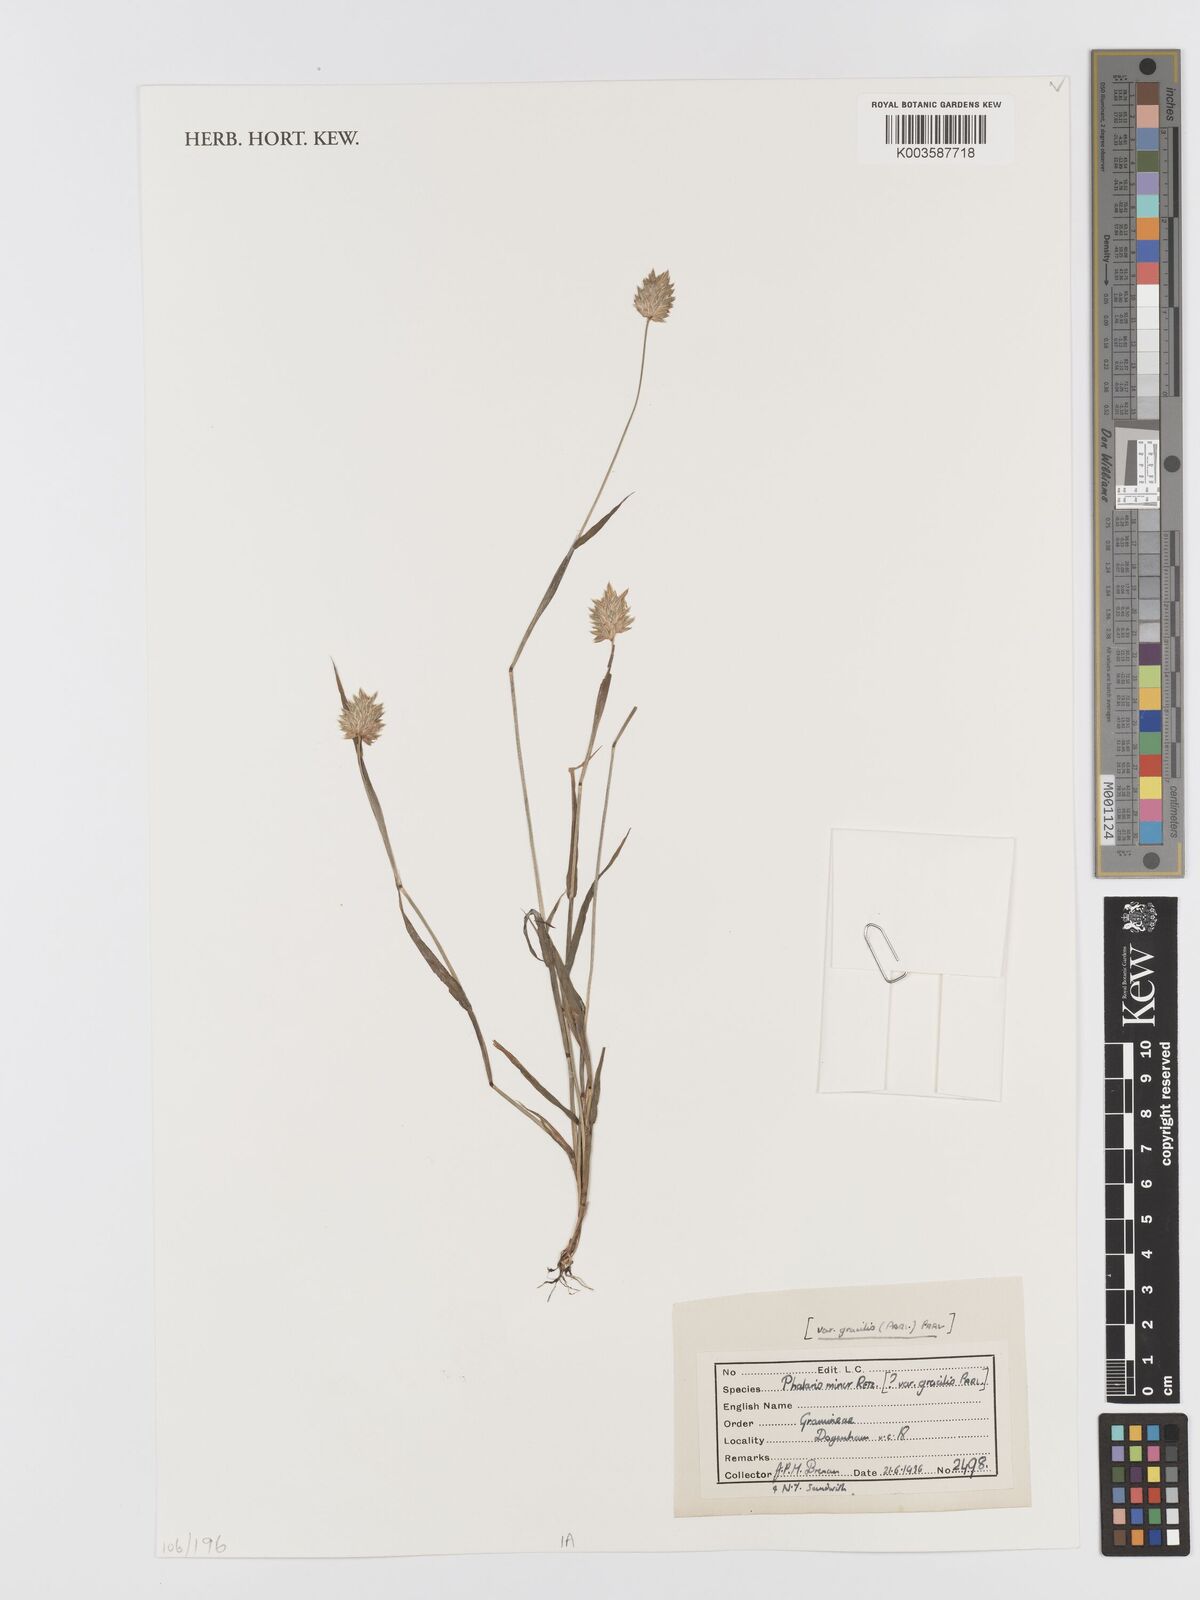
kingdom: Plantae
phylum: Tracheophyta
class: Liliopsida
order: Poales
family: Poaceae
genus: Phalaris
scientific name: Phalaris minor
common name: Littleseed canarygrass
